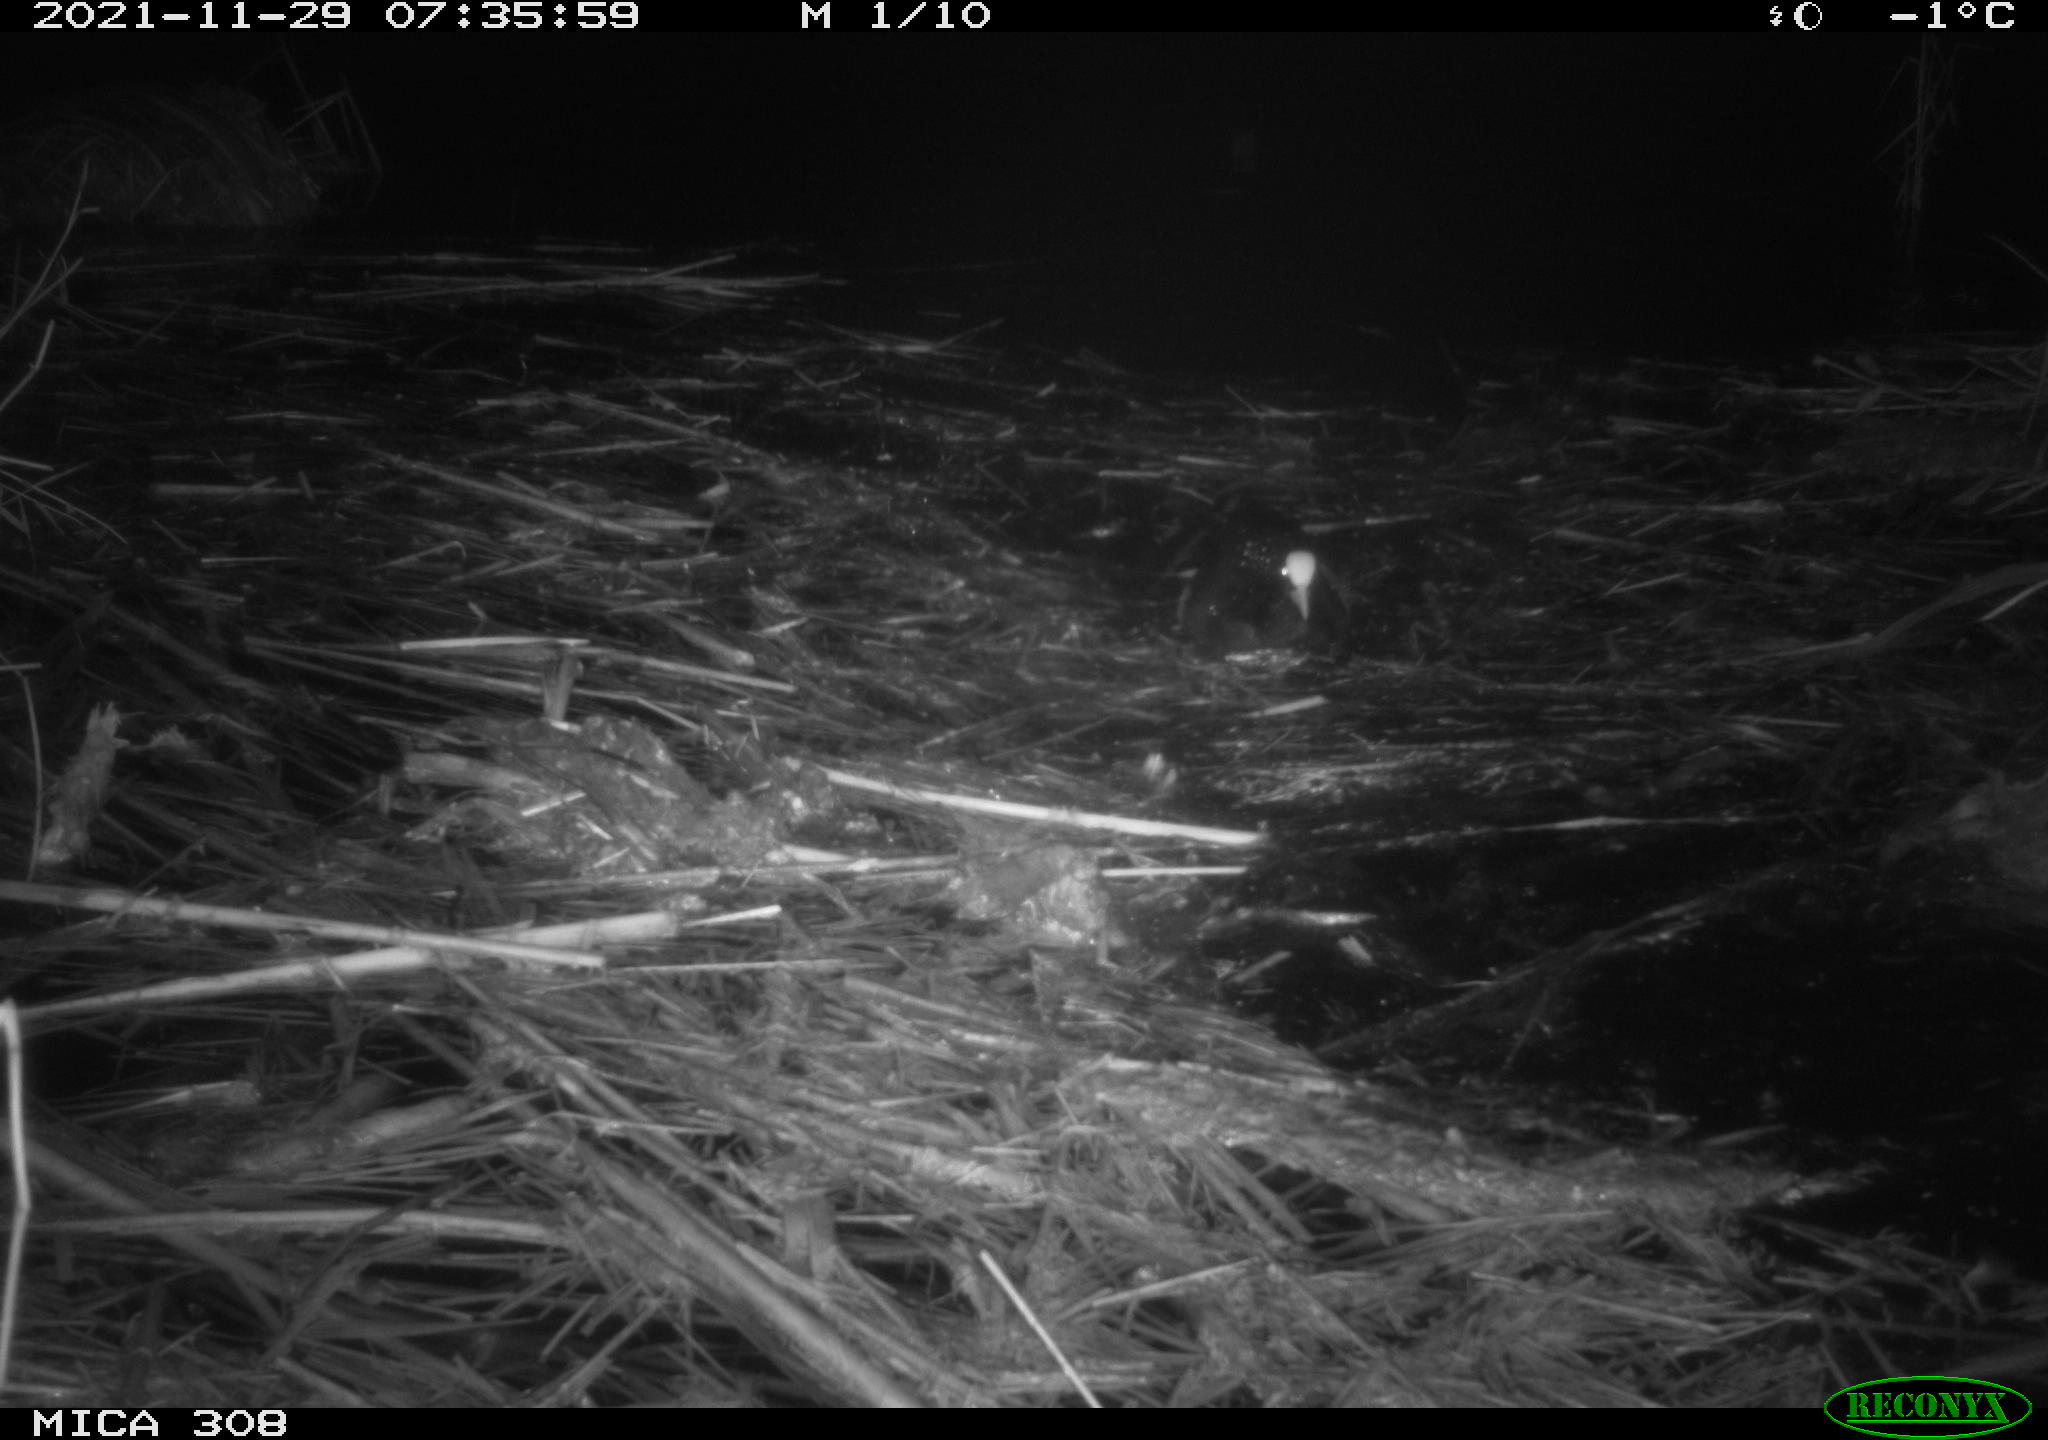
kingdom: Animalia
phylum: Chordata
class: Aves
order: Gruiformes
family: Rallidae
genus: Fulica
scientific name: Fulica atra
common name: Eurasian coot
